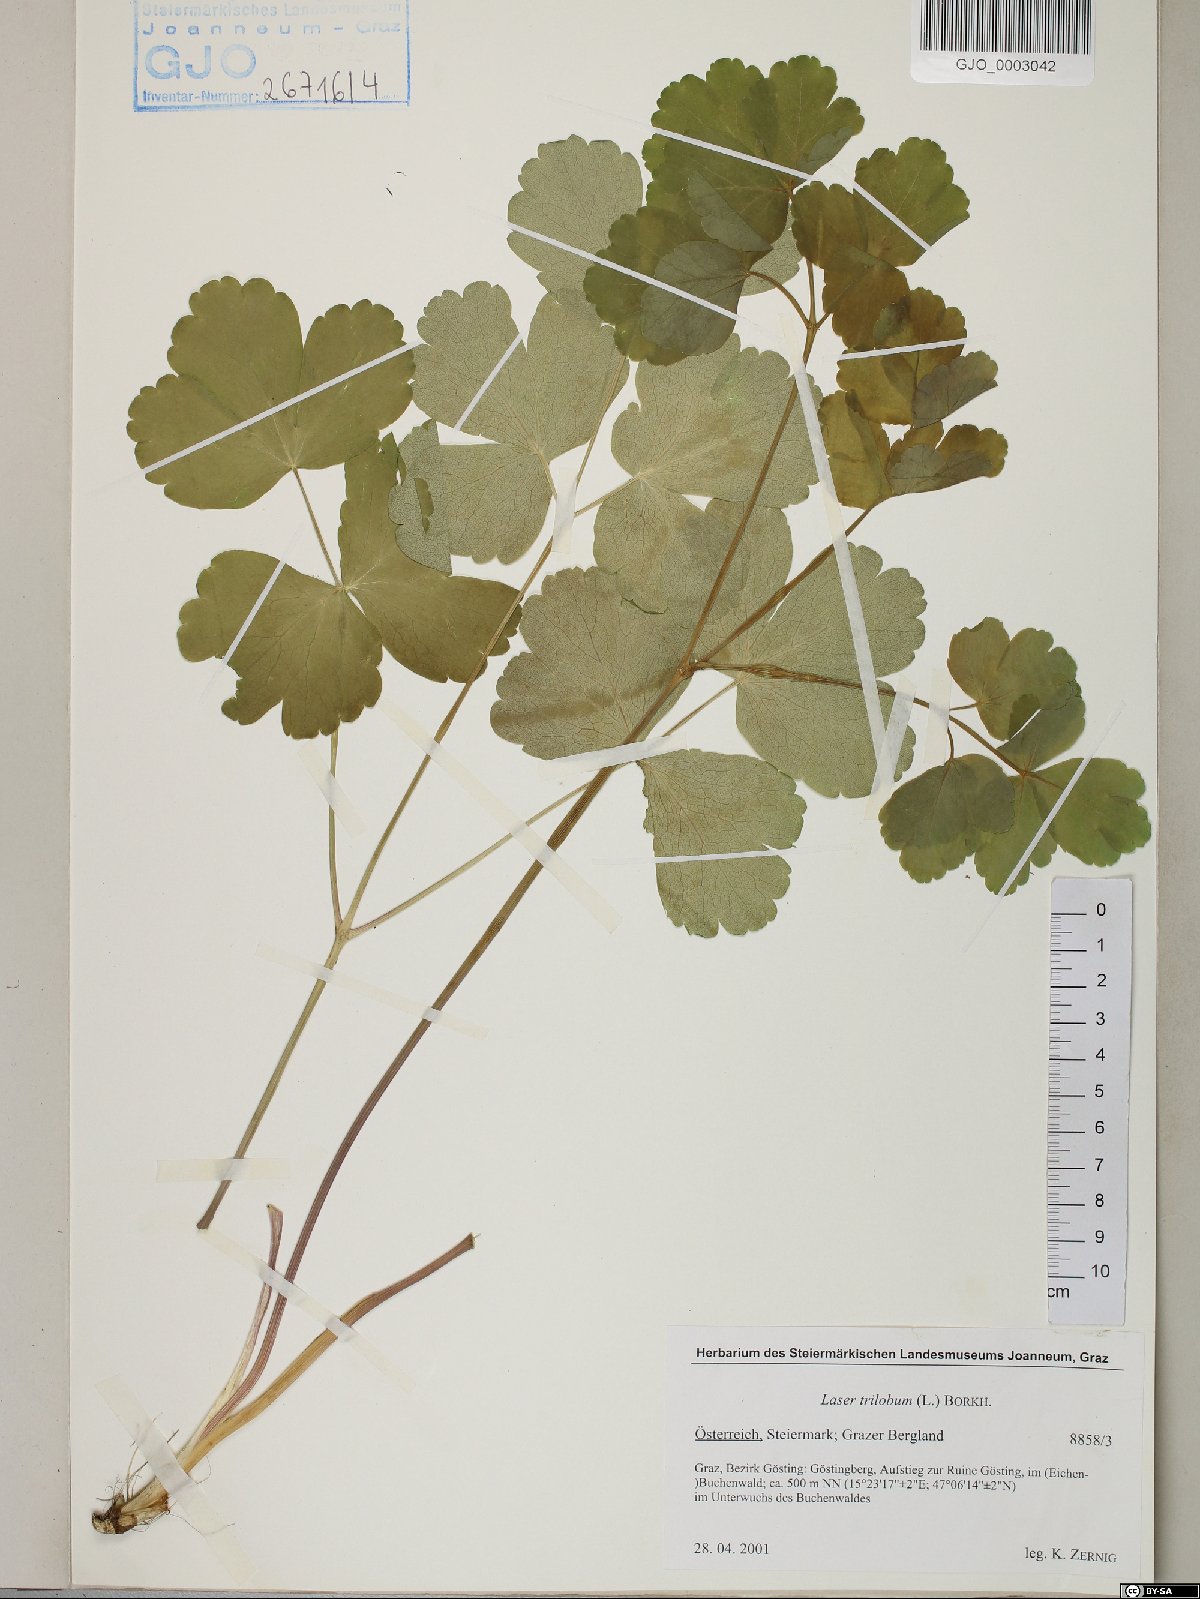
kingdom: Plantae
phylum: Tracheophyta
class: Magnoliopsida
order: Apiales
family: Apiaceae
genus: Laser
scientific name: Laser trilobum
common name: Laser
